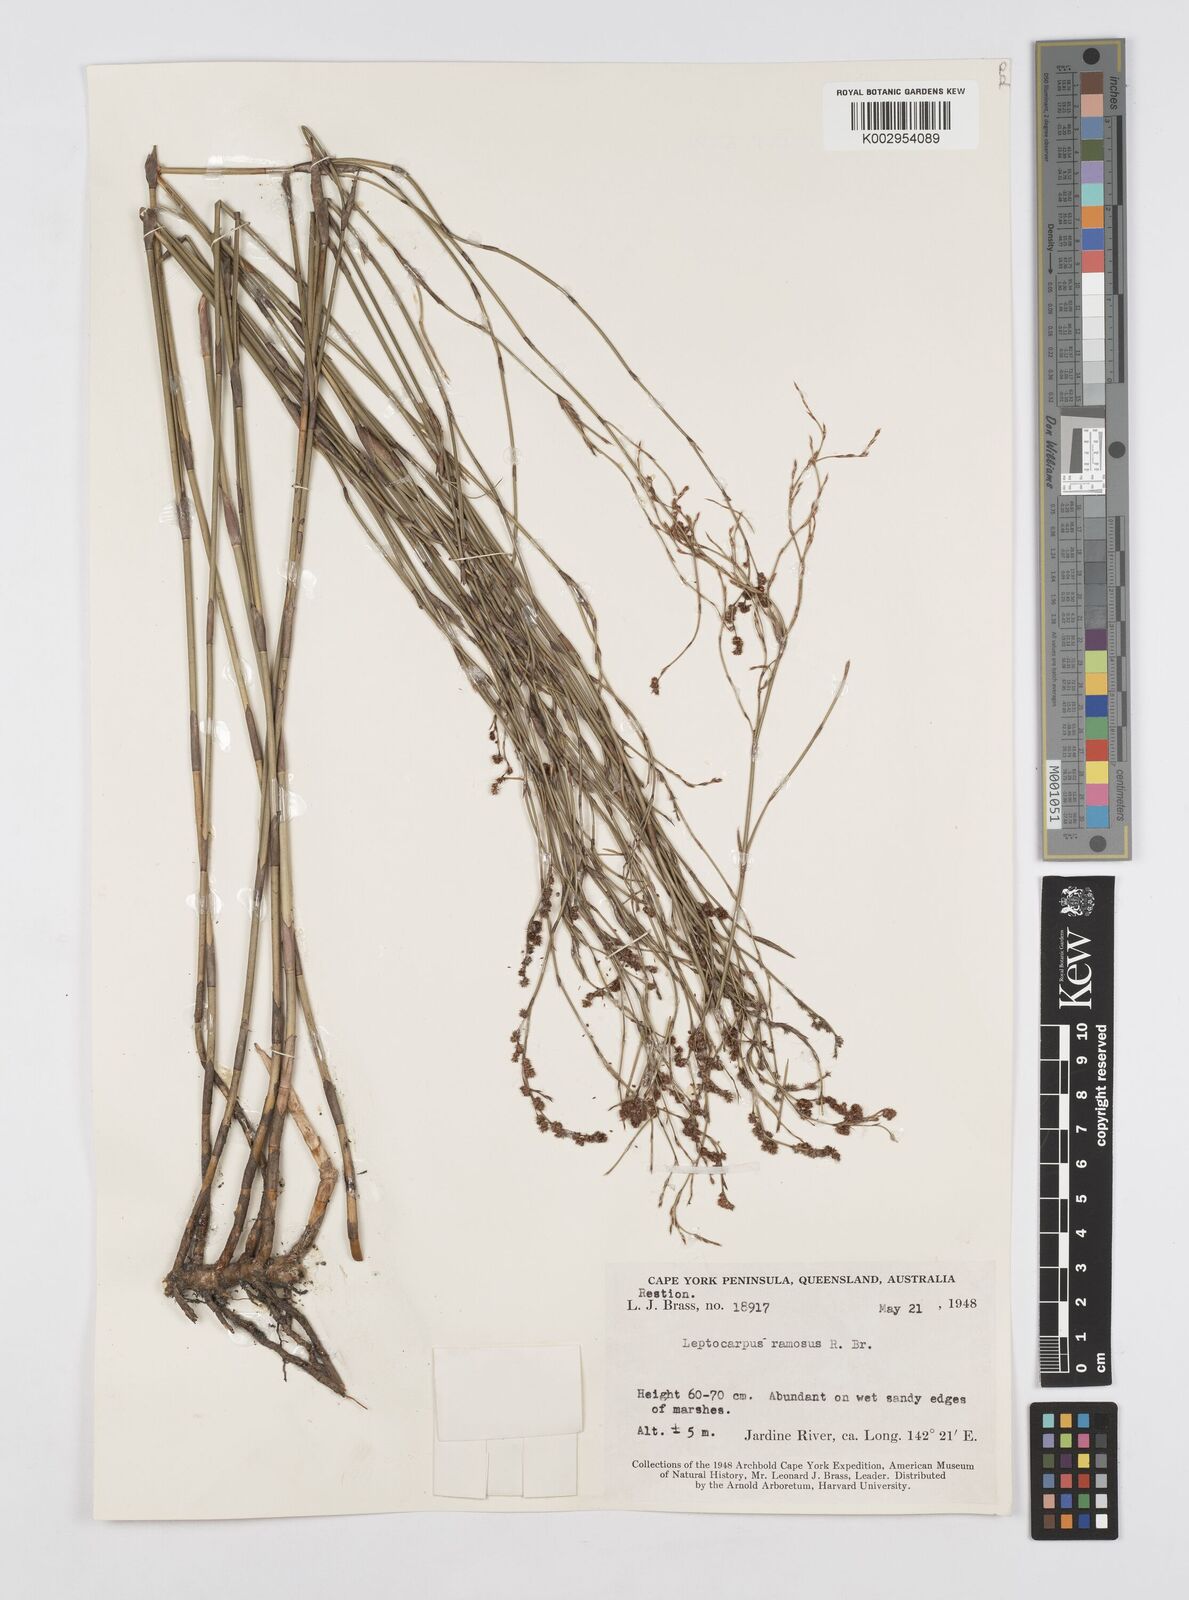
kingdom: Plantae
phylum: Tracheophyta
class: Liliopsida
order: Poales
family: Restionaceae
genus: Dapsilanthus
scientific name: Dapsilanthus ramosus
